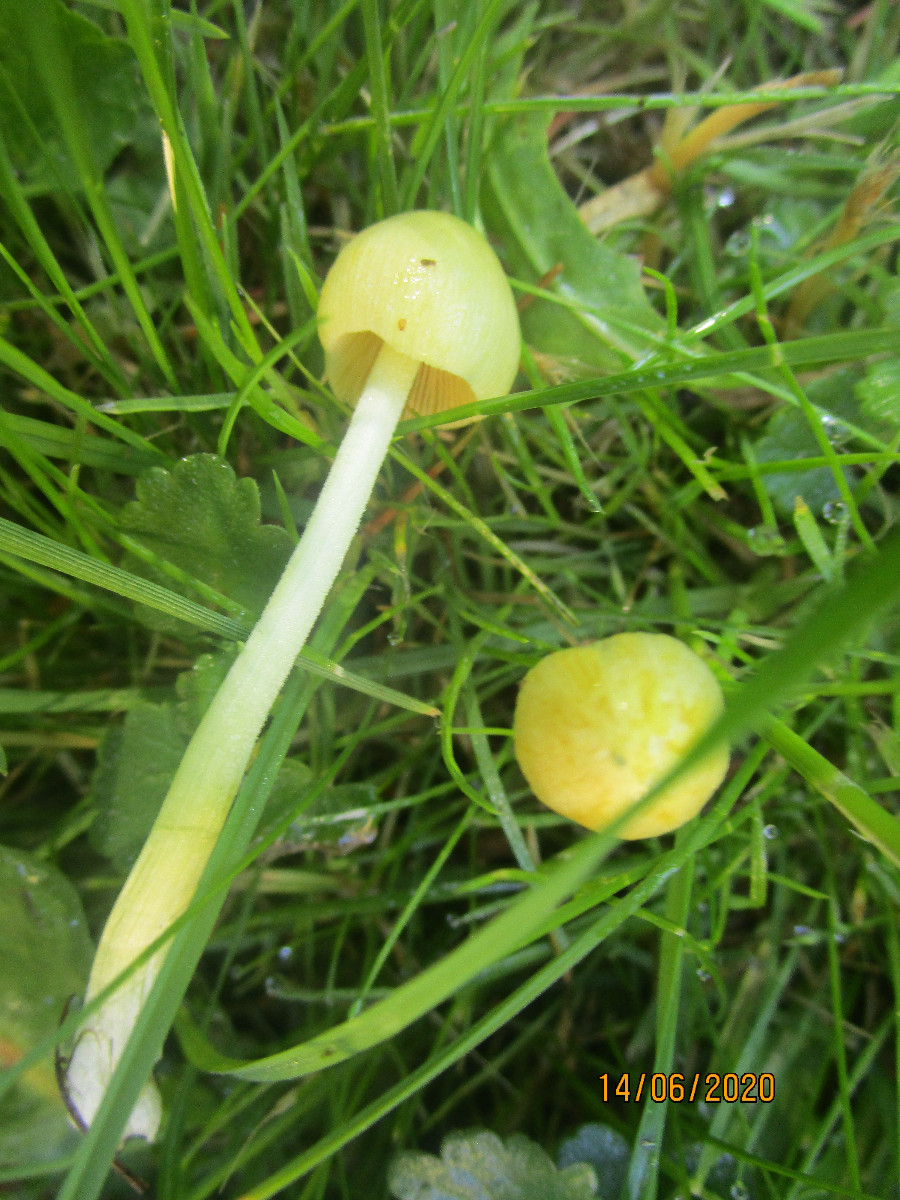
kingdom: Fungi
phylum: Basidiomycota
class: Agaricomycetes
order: Agaricales
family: Bolbitiaceae
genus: Bolbitius
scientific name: Bolbitius titubans
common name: almindelig gulhat
